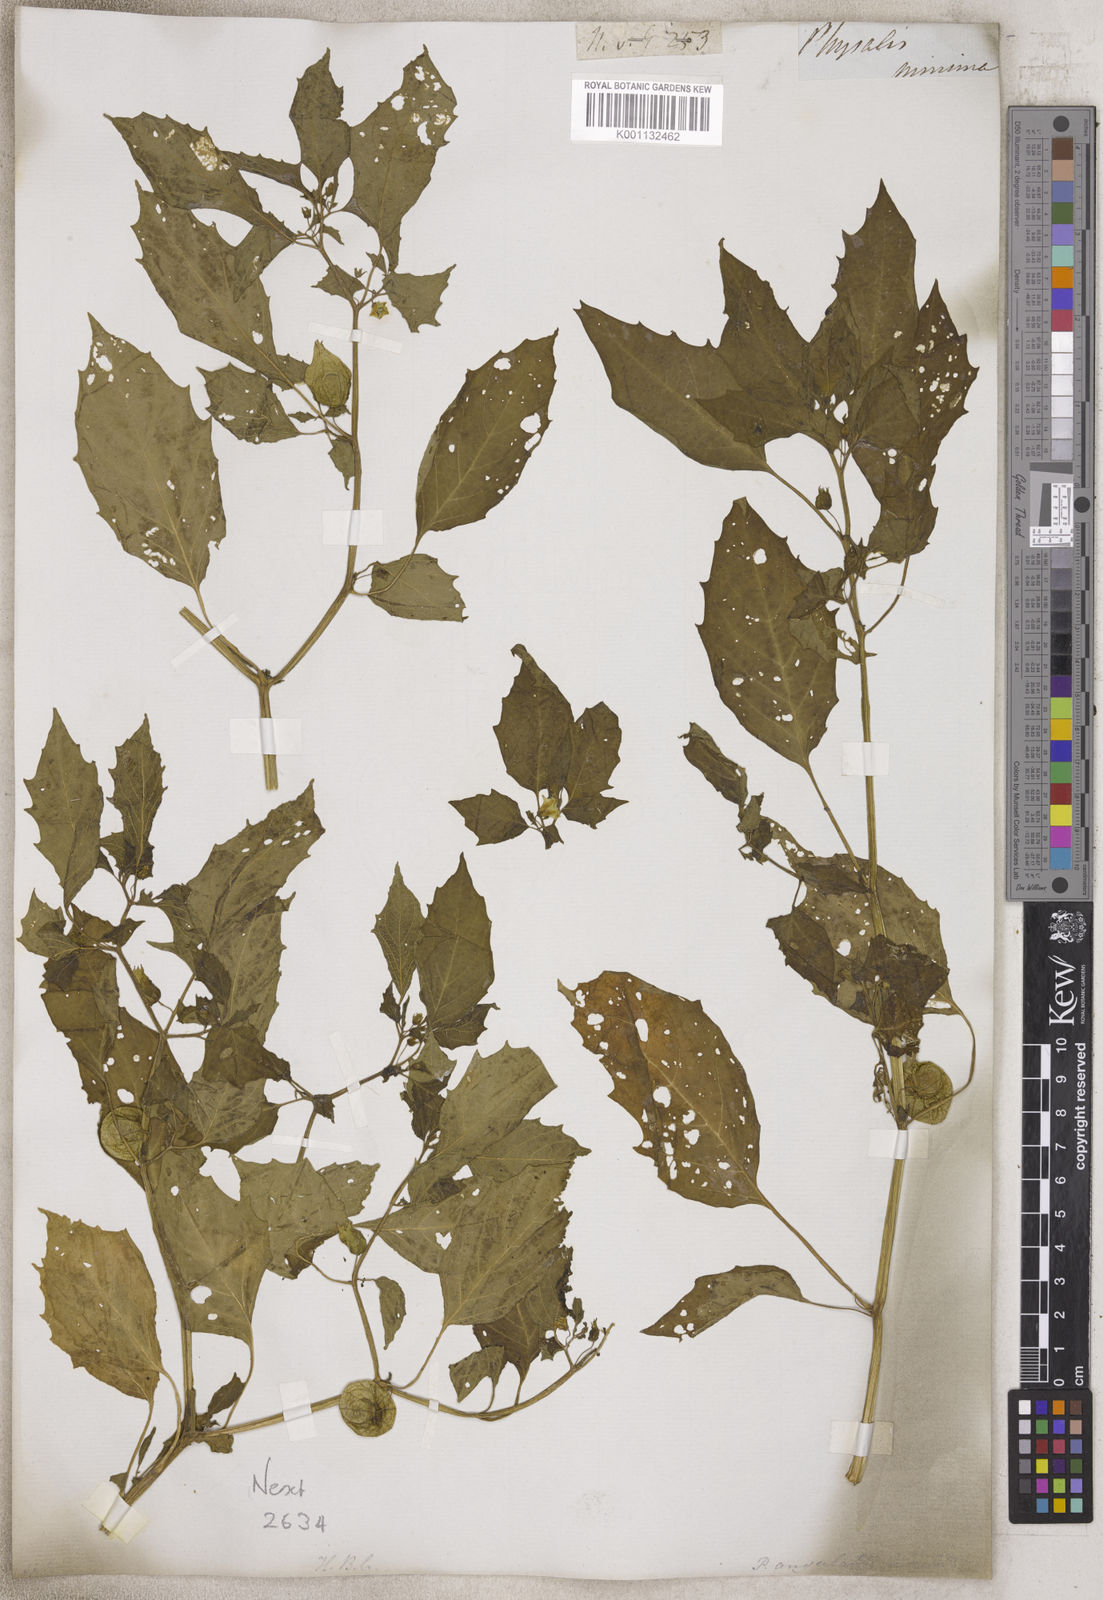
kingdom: Plantae
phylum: Tracheophyta
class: Magnoliopsida
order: Solanales
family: Solanaceae
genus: Physalis
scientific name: Physalis
